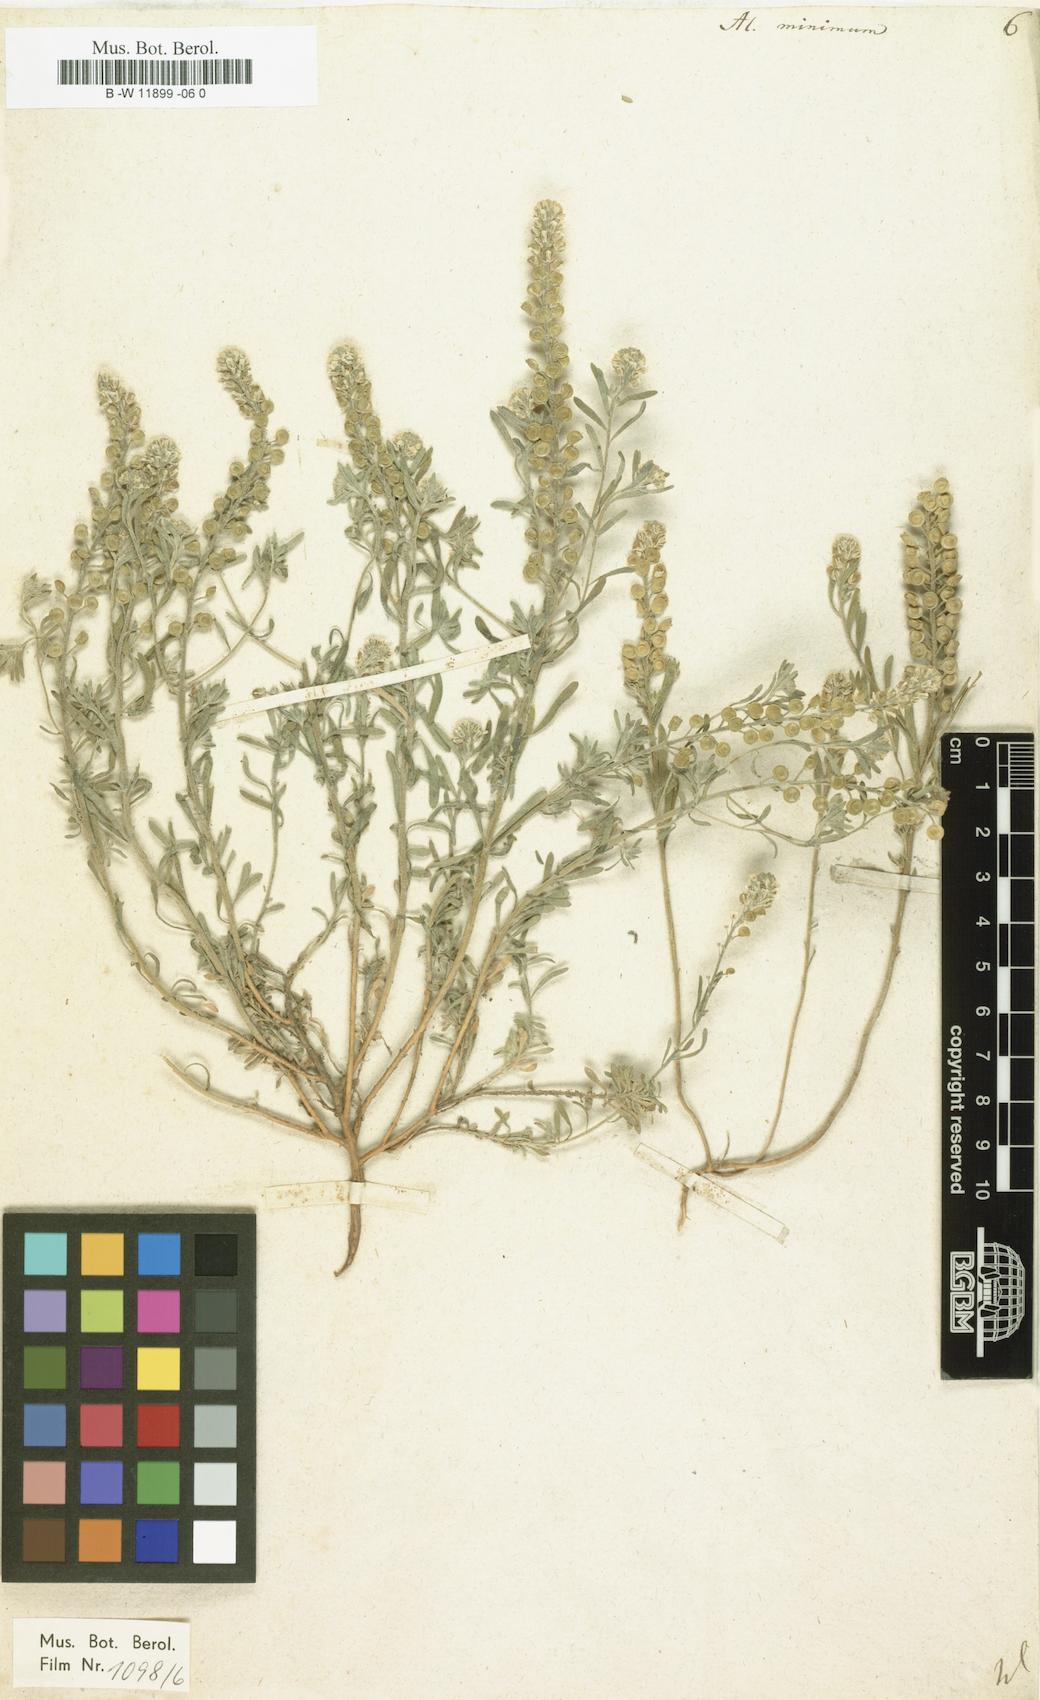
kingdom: Plantae
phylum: Tracheophyta
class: Magnoliopsida
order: Brassicales
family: Brassicaceae
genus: Alyssum
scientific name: Alyssum turkestanicum
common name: Desert alyssum
